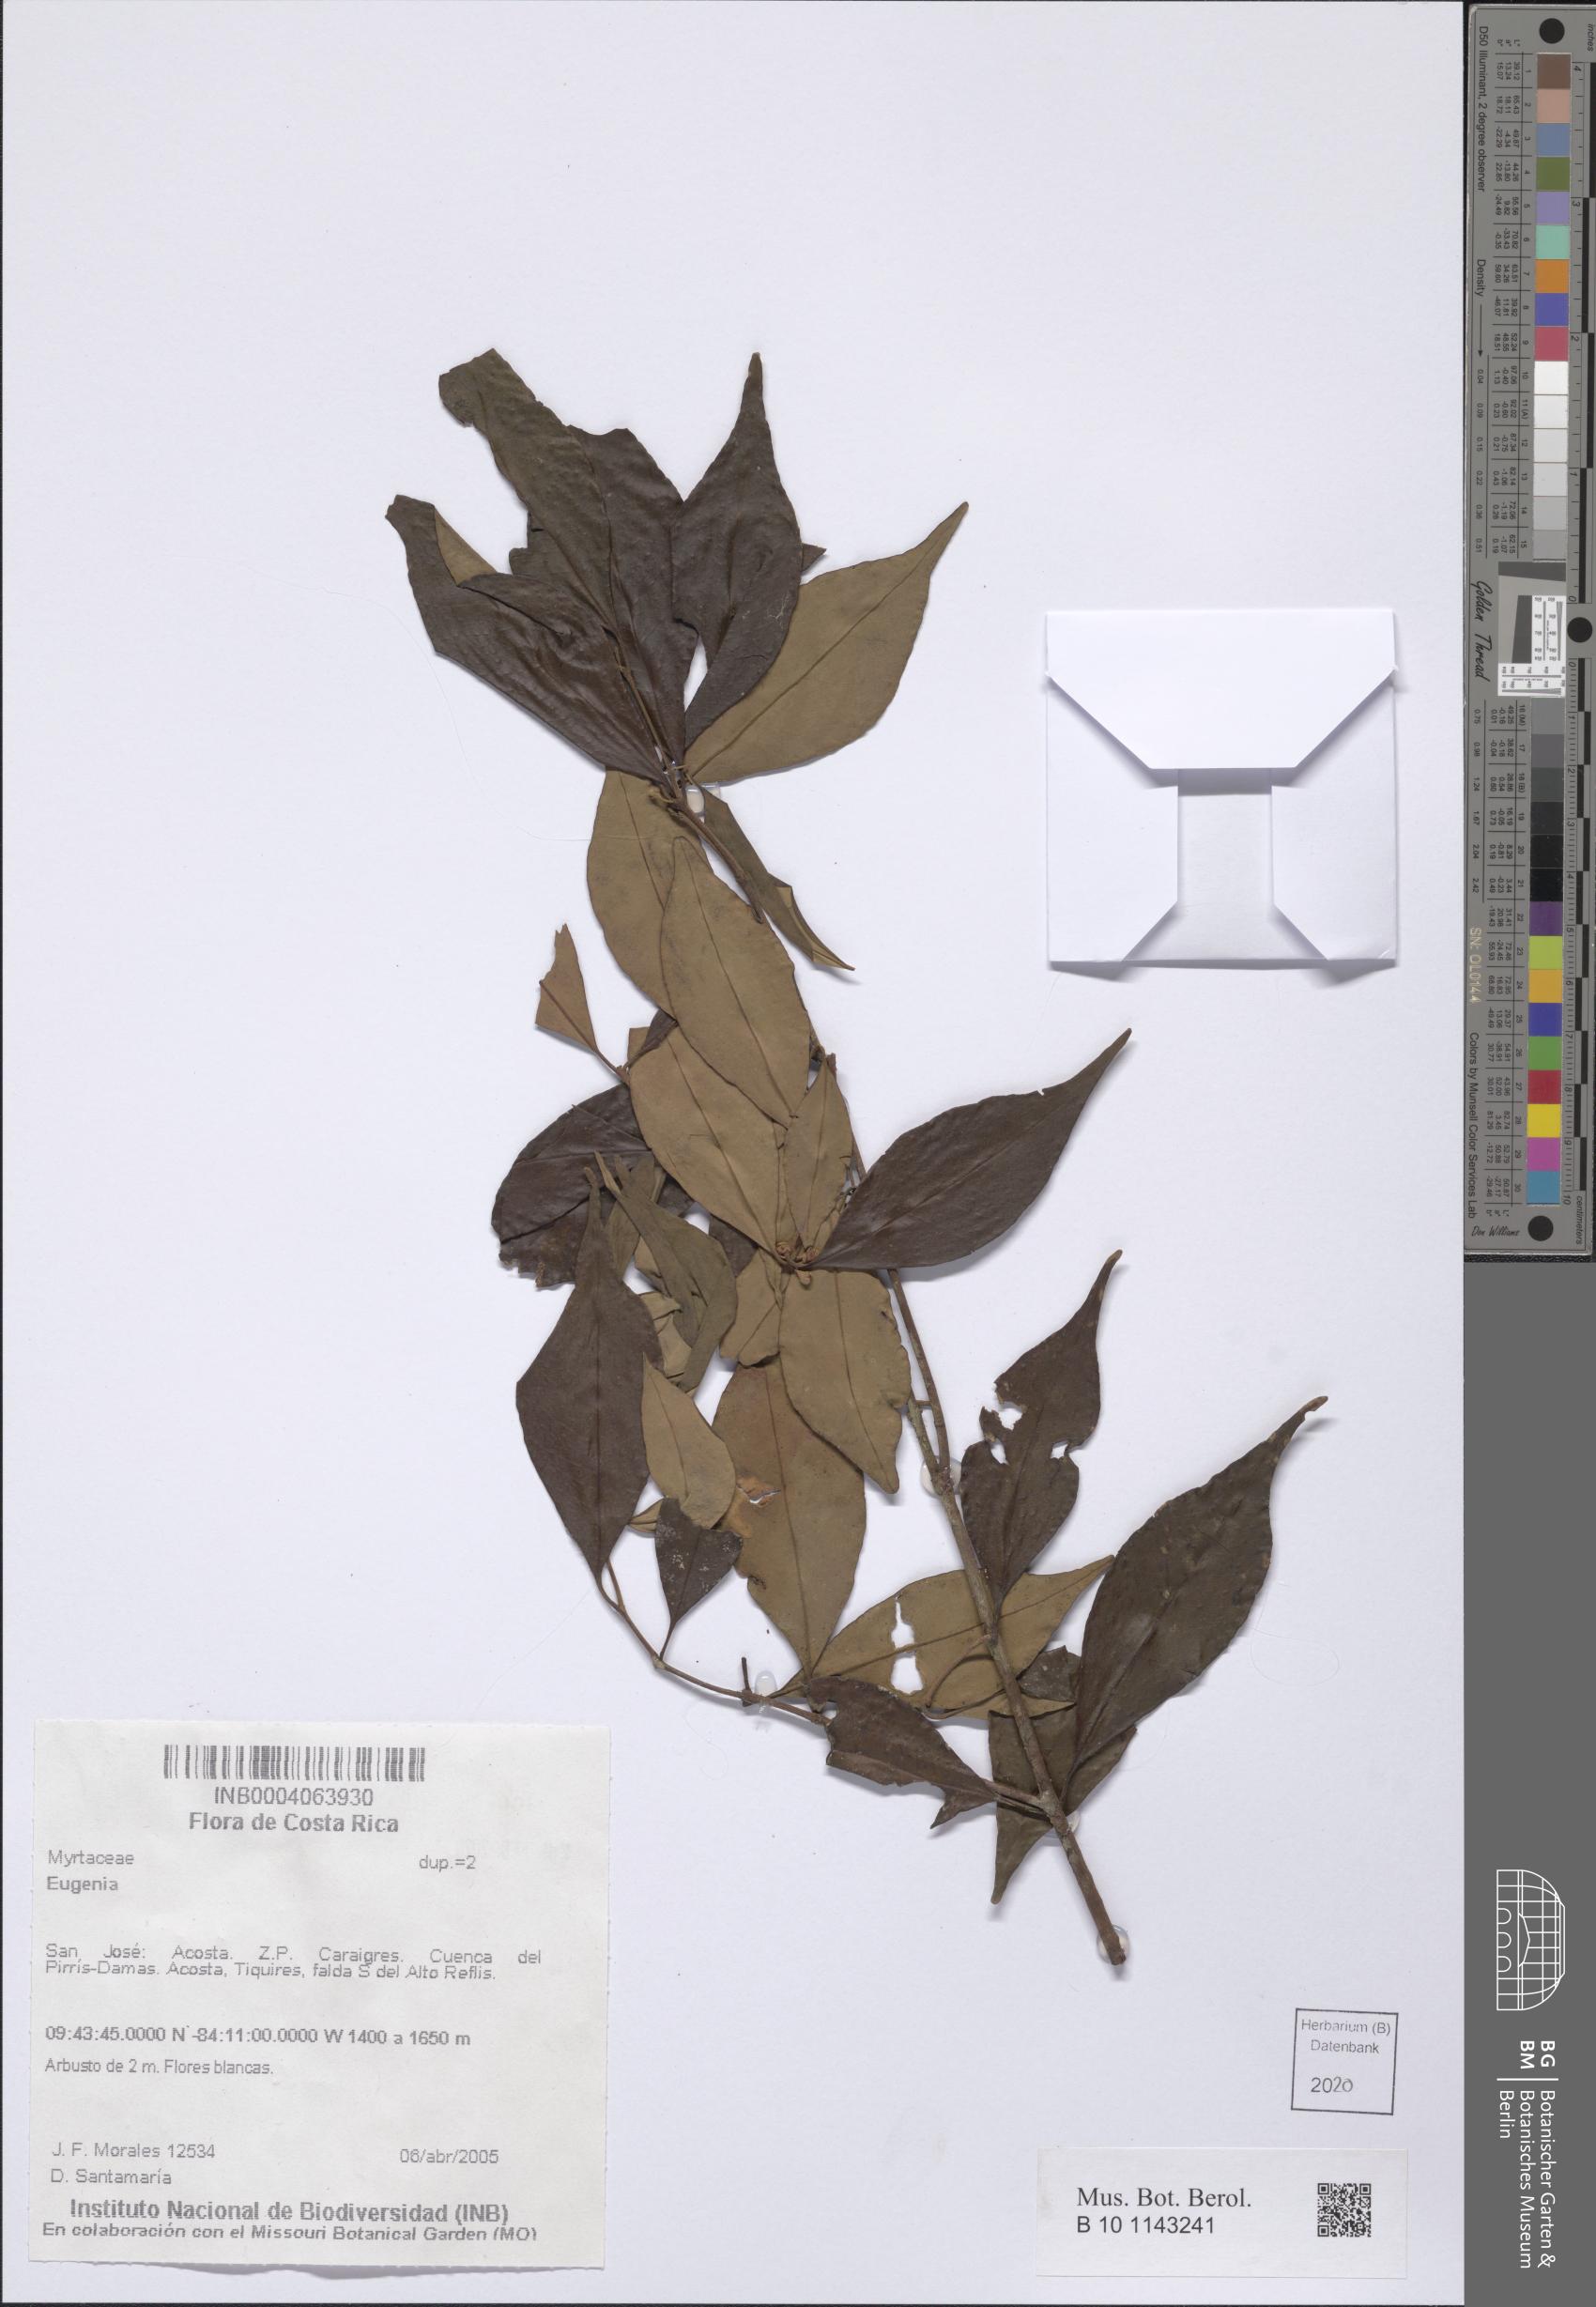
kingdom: Plantae
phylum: Tracheophyta
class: Magnoliopsida
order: Myrtales
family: Myrtaceae
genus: Eugenia
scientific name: Eugenia
